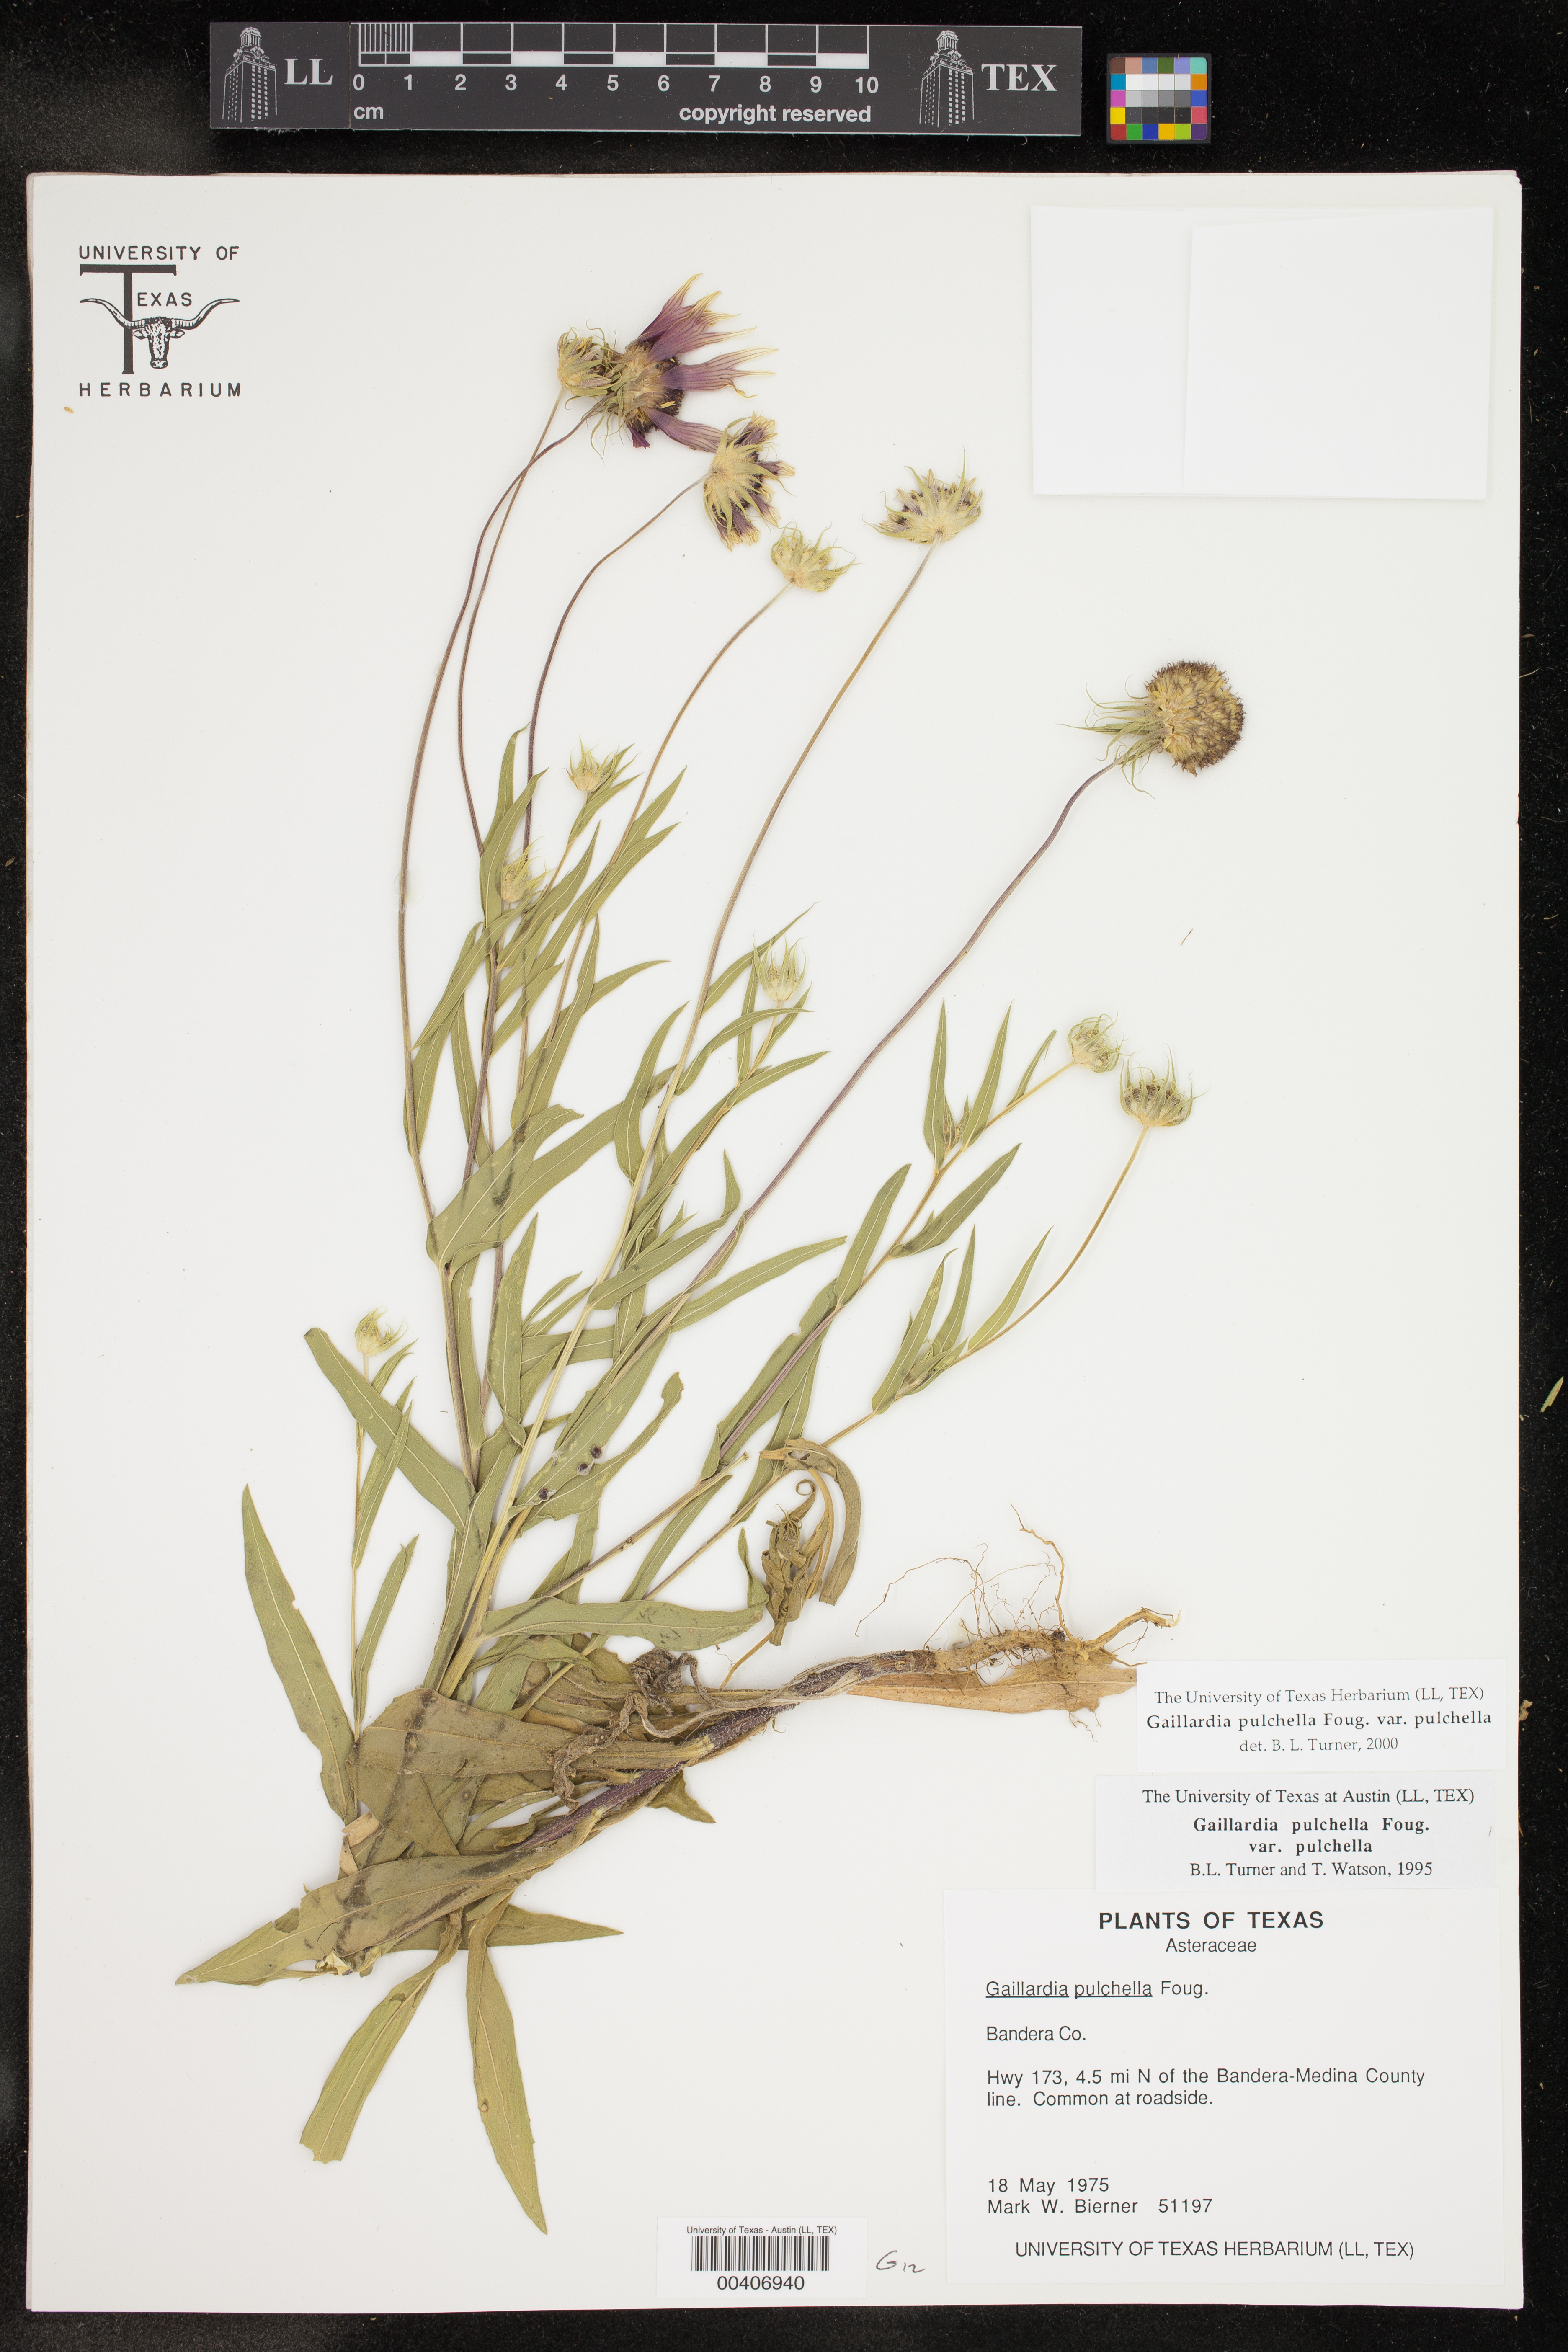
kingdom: Plantae
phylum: Tracheophyta
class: Magnoliopsida
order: Asterales
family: Asteraceae
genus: Gaillardia
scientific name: Gaillardia pulchella
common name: Firewheel
